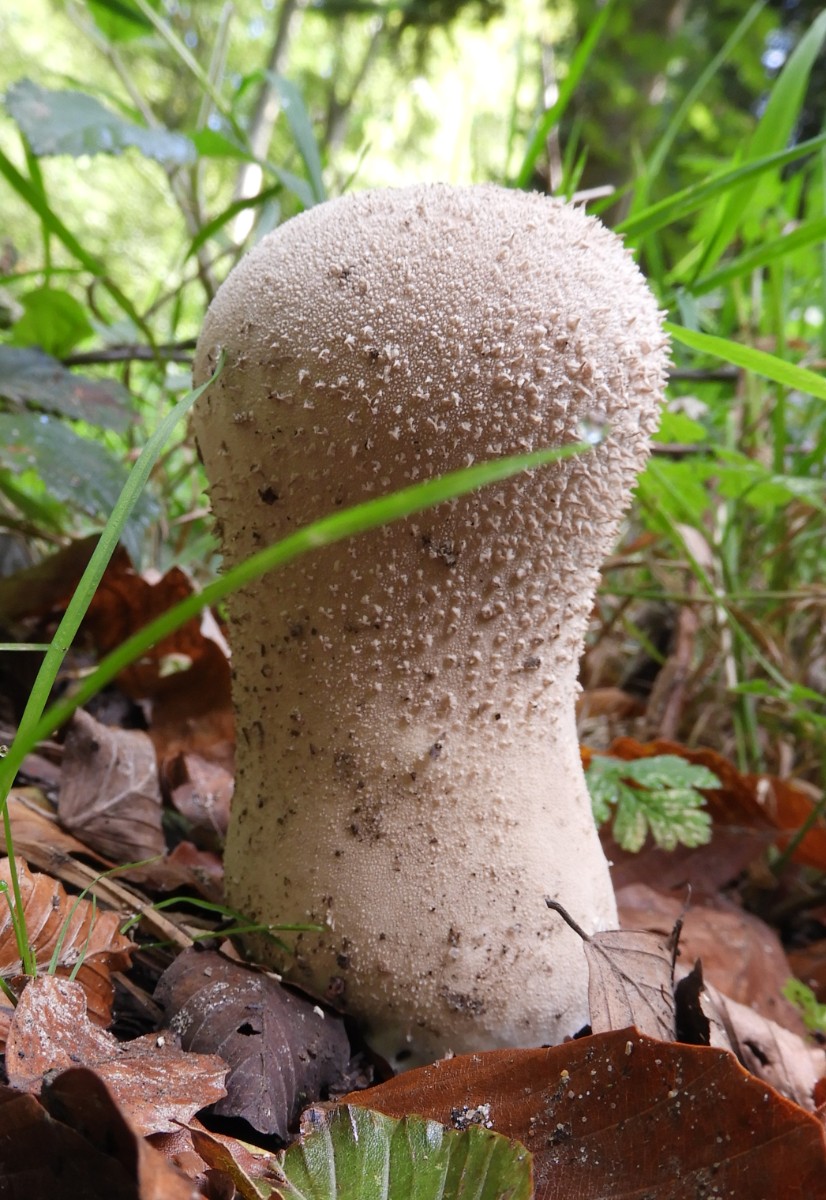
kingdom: Fungi
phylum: Basidiomycota
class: Agaricomycetes
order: Agaricales
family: Lycoperdaceae
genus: Lycoperdon
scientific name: Lycoperdon excipuliforme
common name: højstokket støvbold
